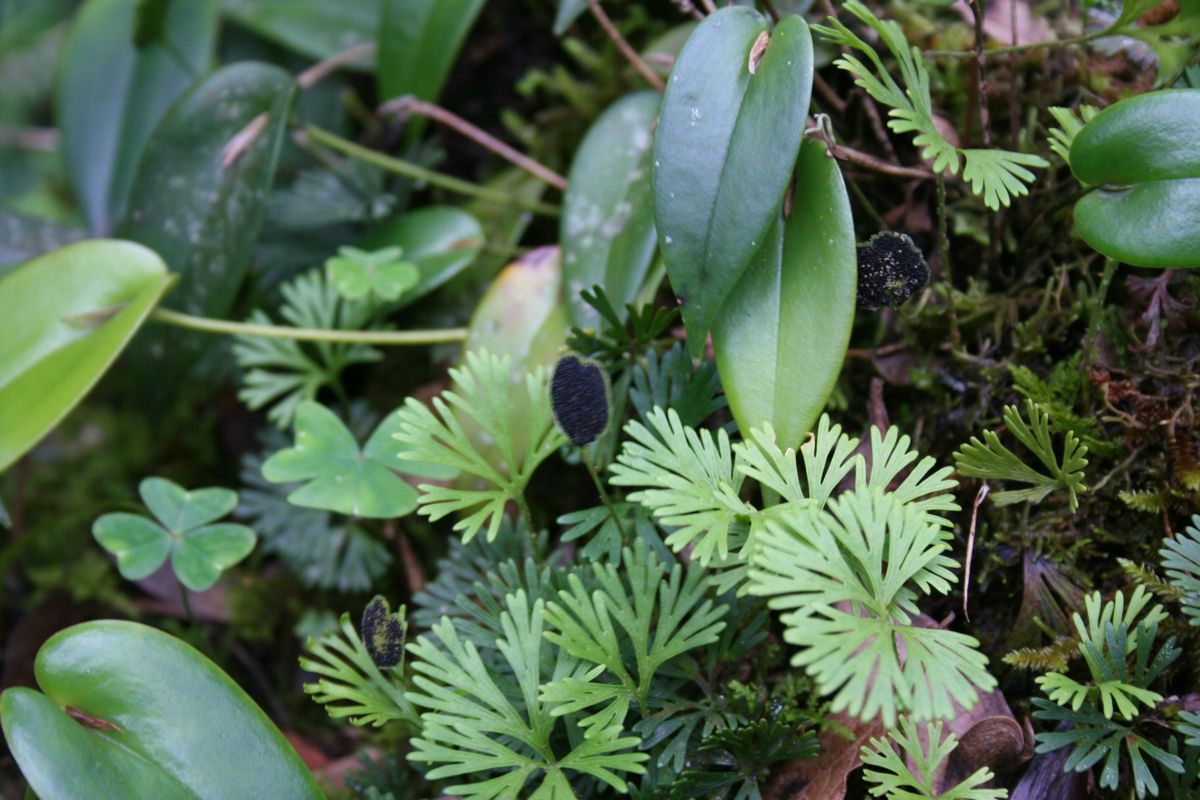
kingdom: Plantae
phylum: Tracheophyta
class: Polypodiopsida
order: Polypodiales
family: Dryopteridaceae
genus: Elaphoglossum
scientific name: Elaphoglossum peltatum
